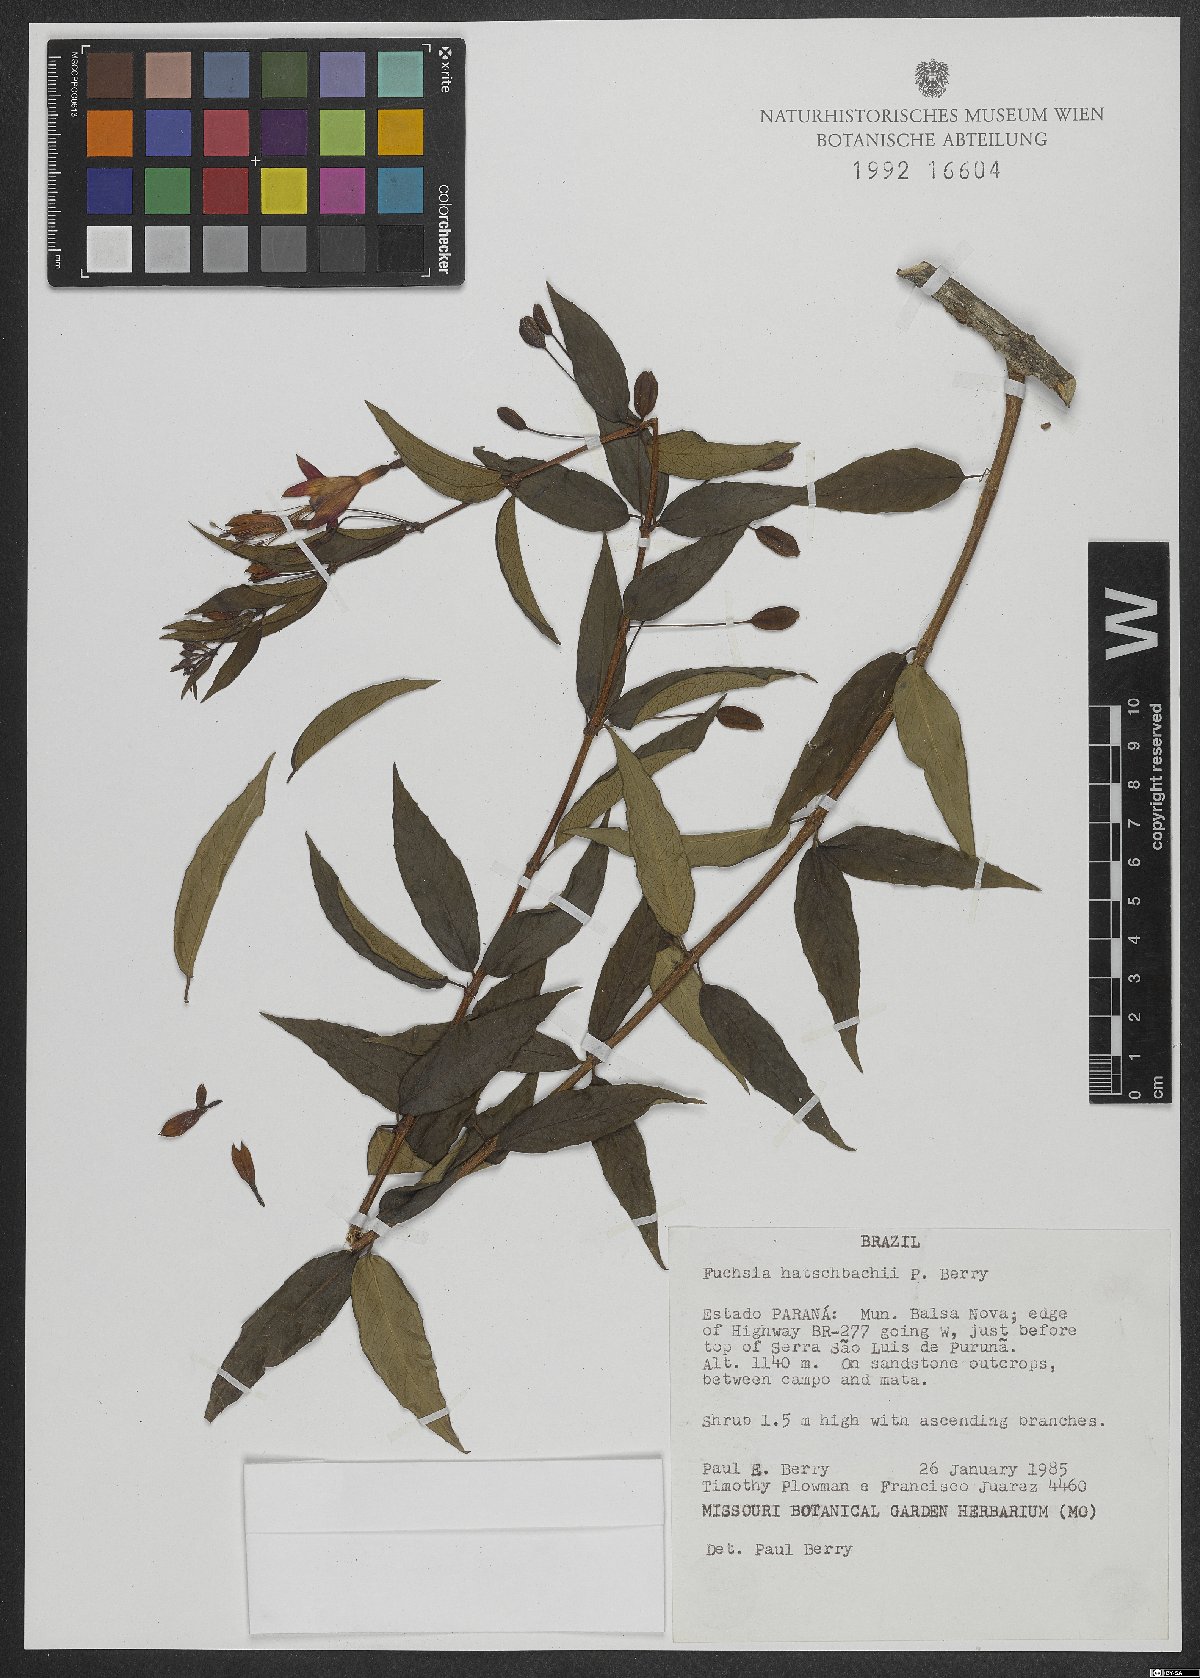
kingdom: Plantae
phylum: Tracheophyta
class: Magnoliopsida
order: Myrtales
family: Onagraceae
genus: Fuchsia
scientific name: Fuchsia hatschbachii
